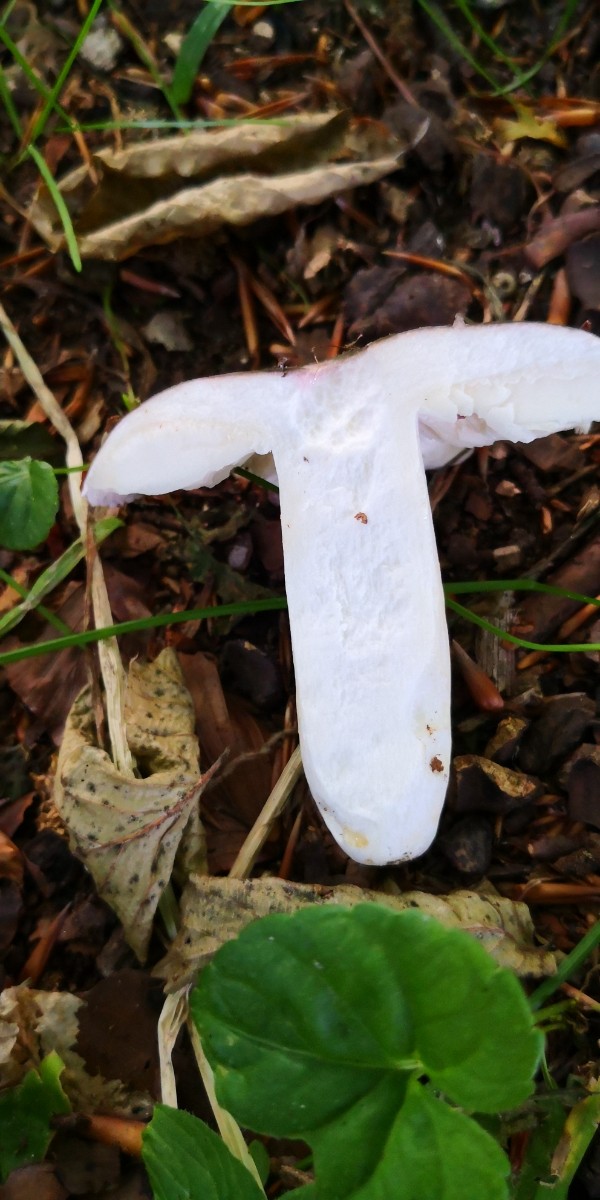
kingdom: Fungi
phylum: Basidiomycota
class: Agaricomycetes
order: Russulales
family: Russulaceae
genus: Russula
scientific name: Russula
